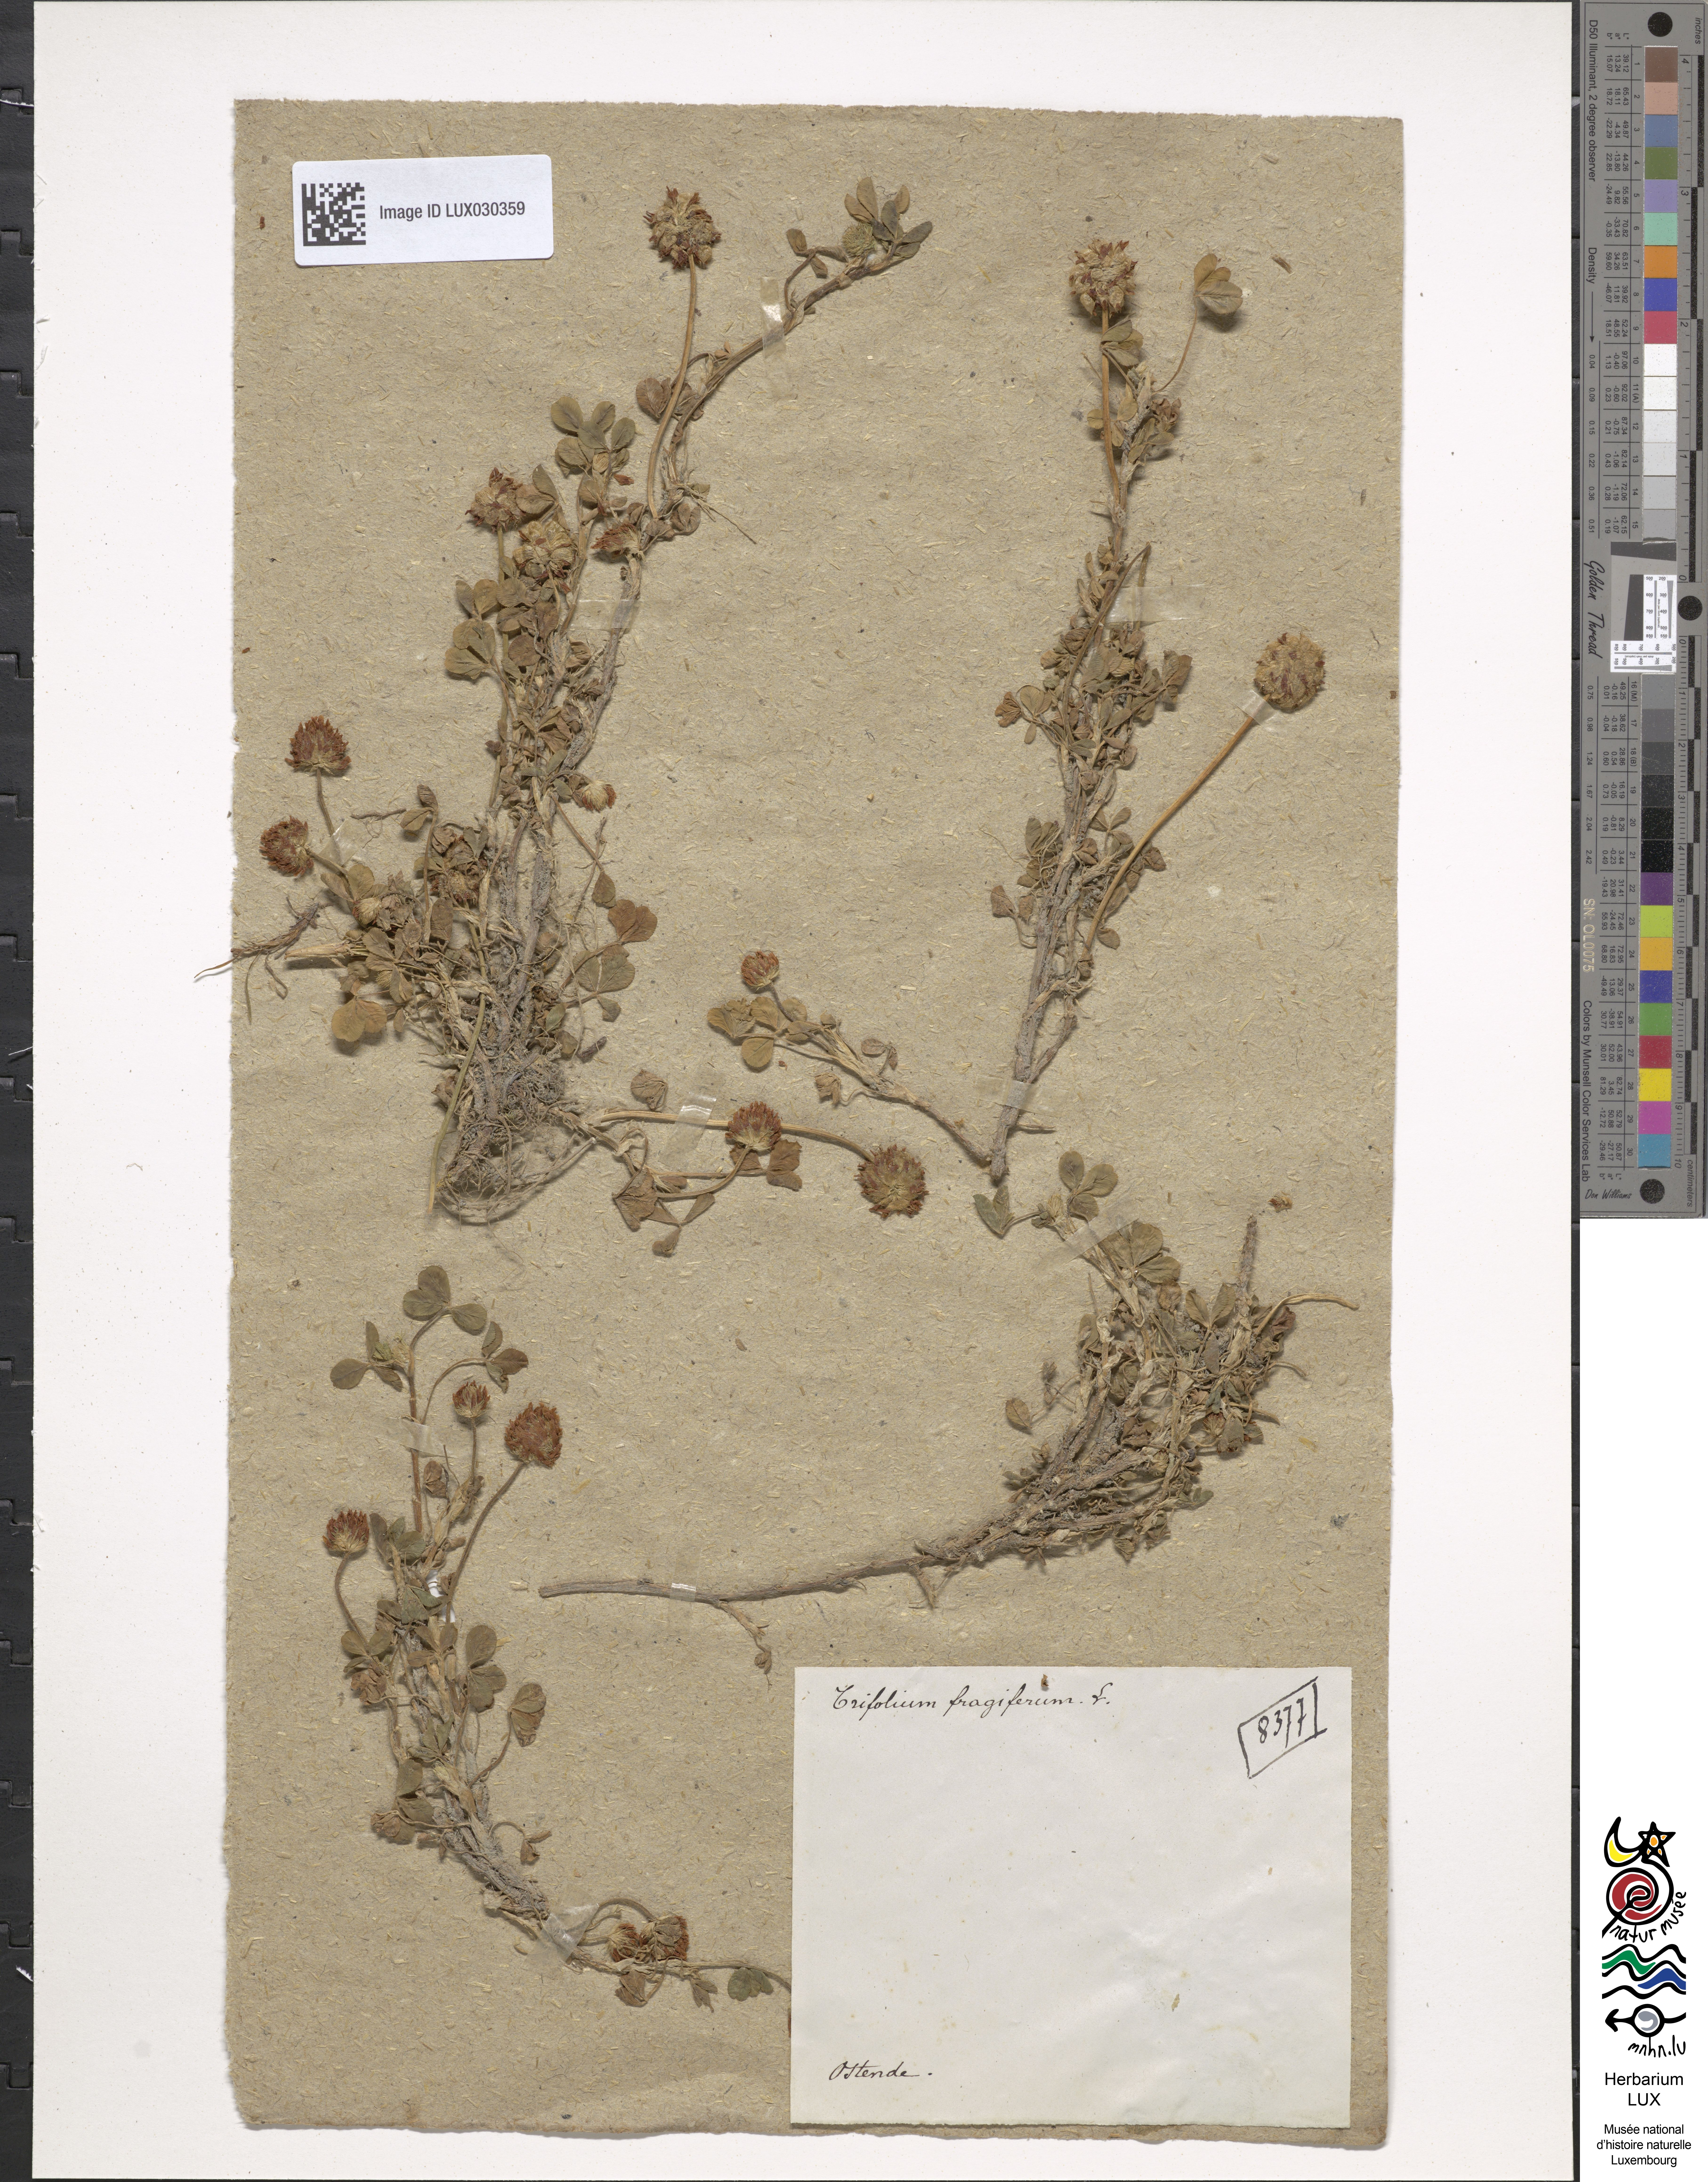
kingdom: Plantae
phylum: Tracheophyta
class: Magnoliopsida
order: Fabales
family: Fabaceae
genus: Trifolium
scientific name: Trifolium fragiferum
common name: Strawberry clover
